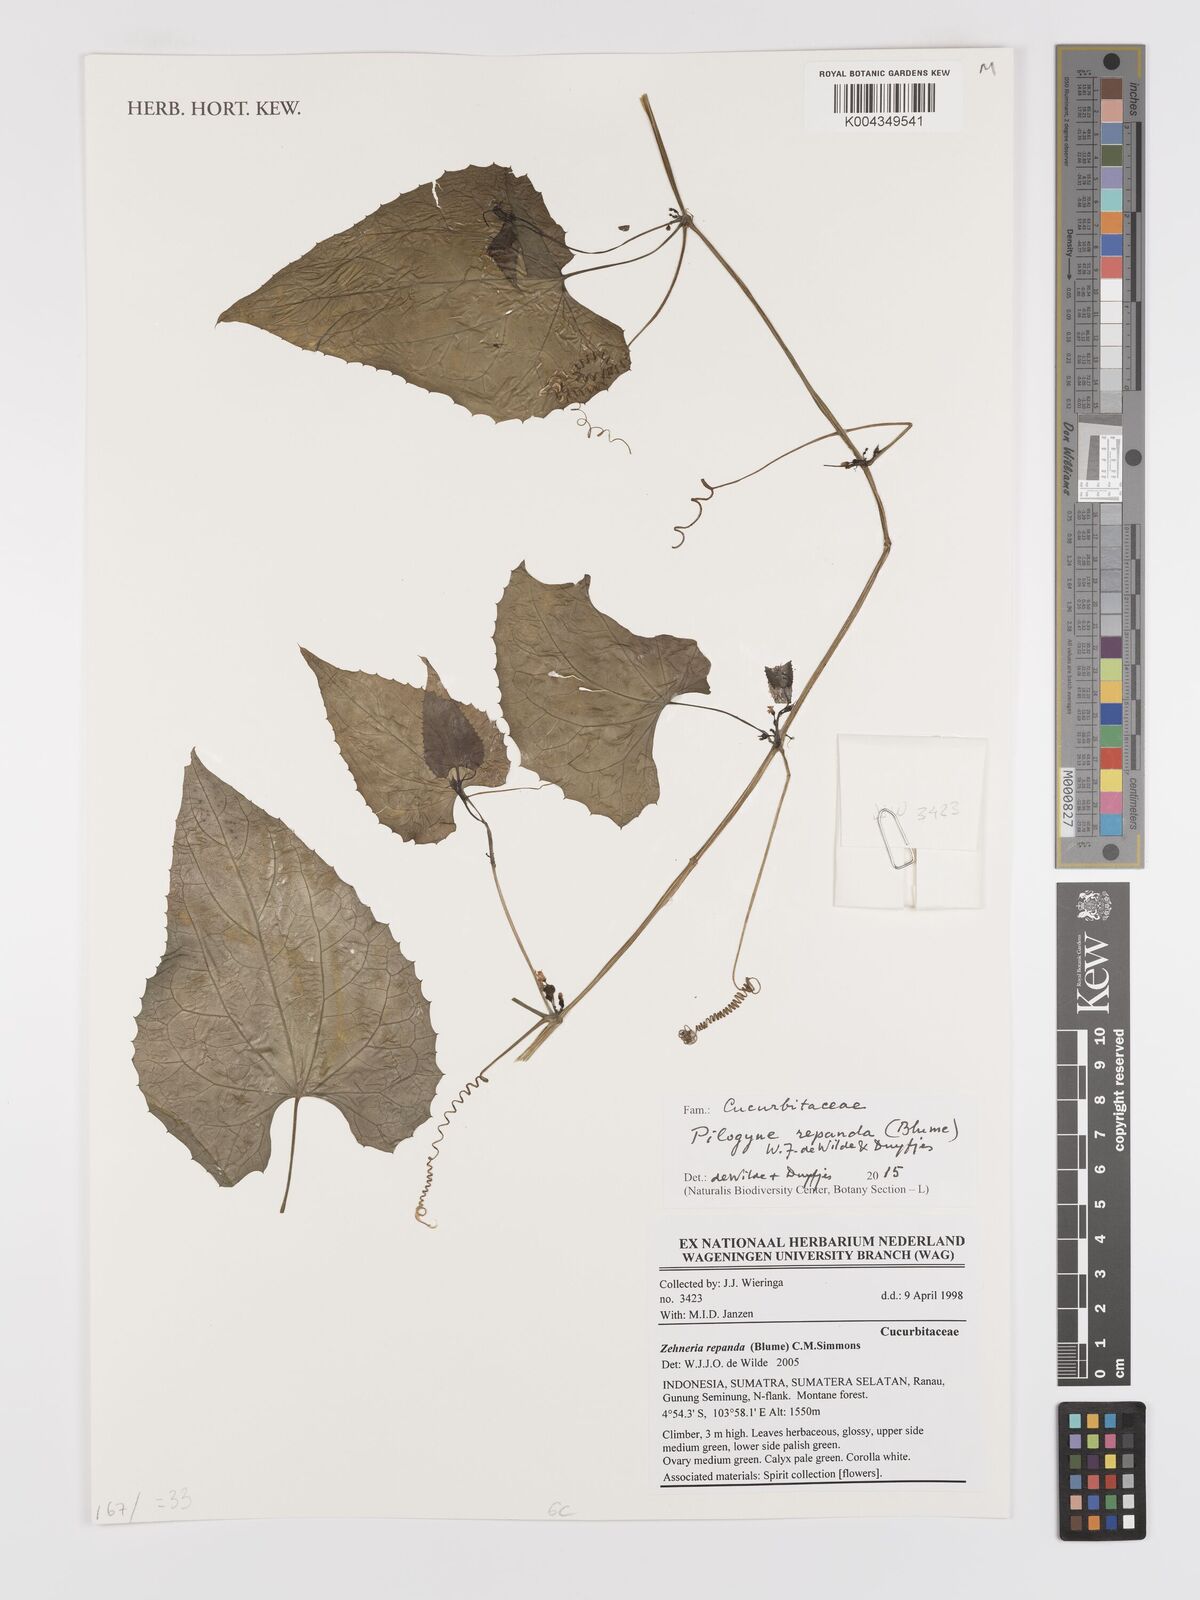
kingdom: Plantae
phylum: Tracheophyta
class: Magnoliopsida
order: Cucurbitales
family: Cucurbitaceae
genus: Zehneria
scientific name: Zehneria repanda
